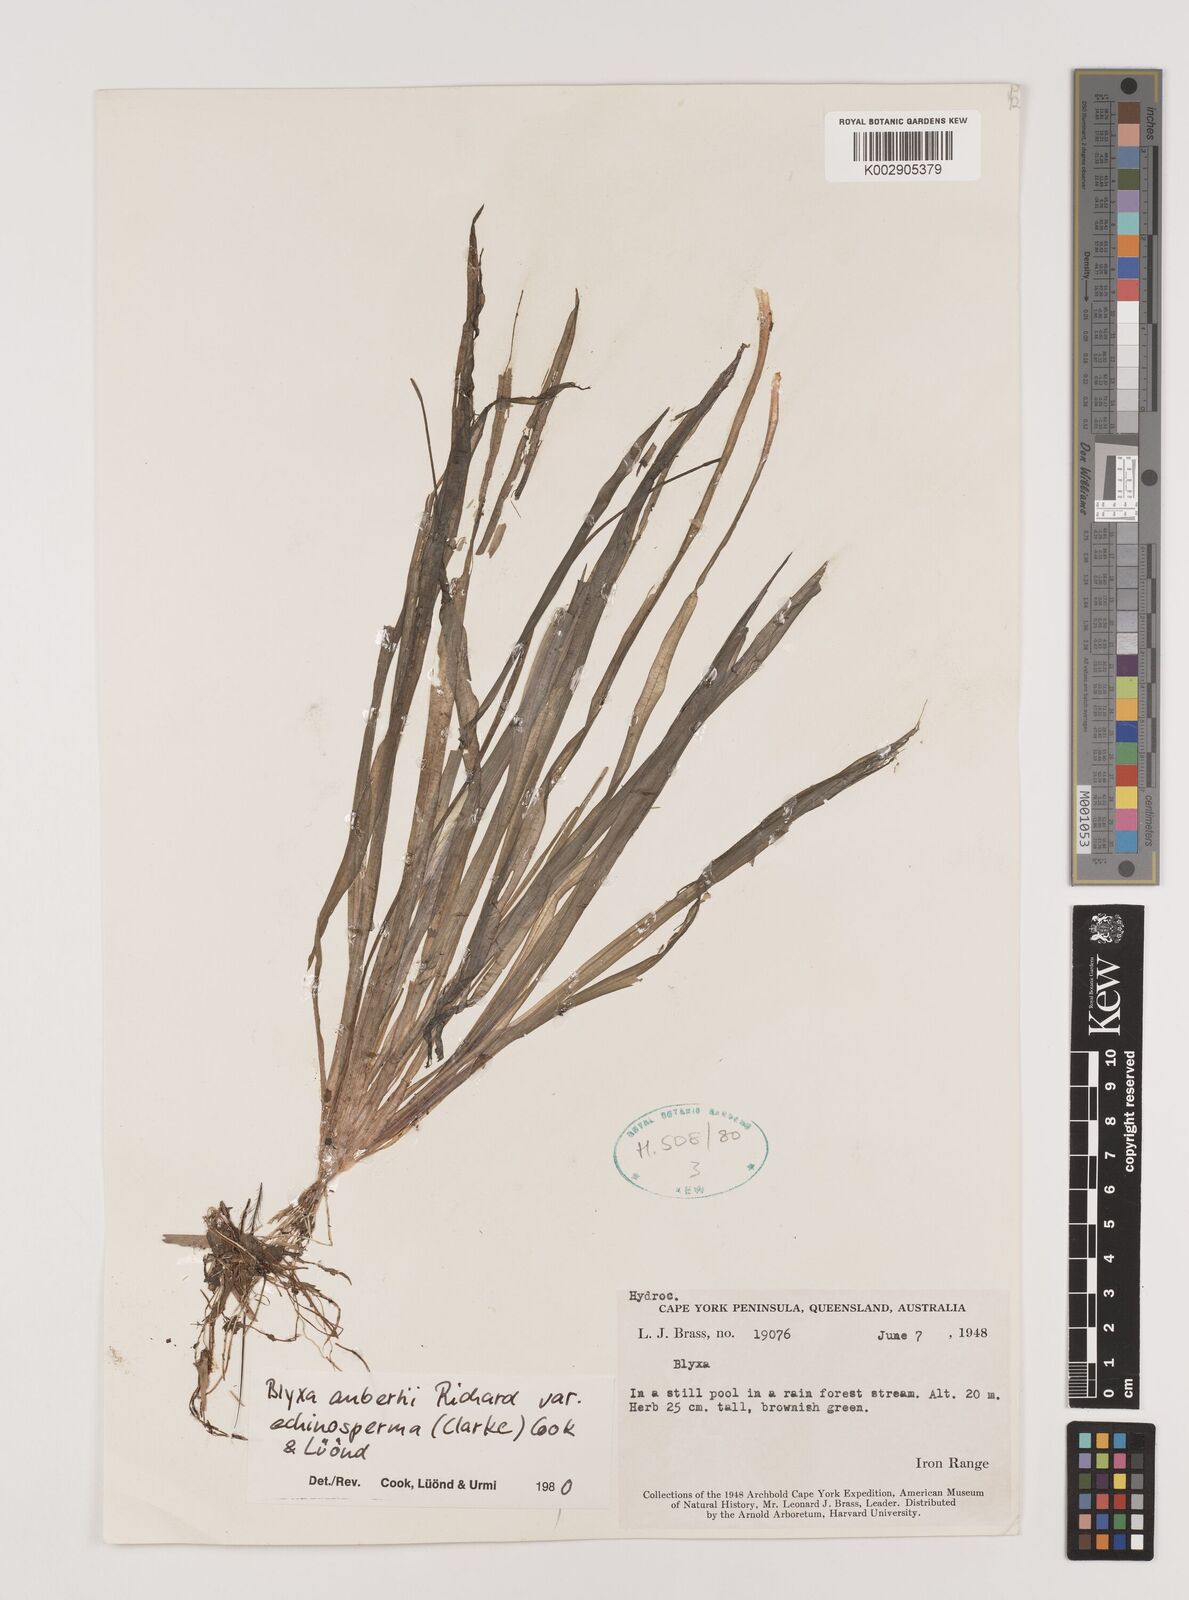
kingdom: Plantae
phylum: Tracheophyta
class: Liliopsida
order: Alismatales
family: Hydrocharitaceae
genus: Blyxa
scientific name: Blyxa aubertii
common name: Roundfruit blyxa
